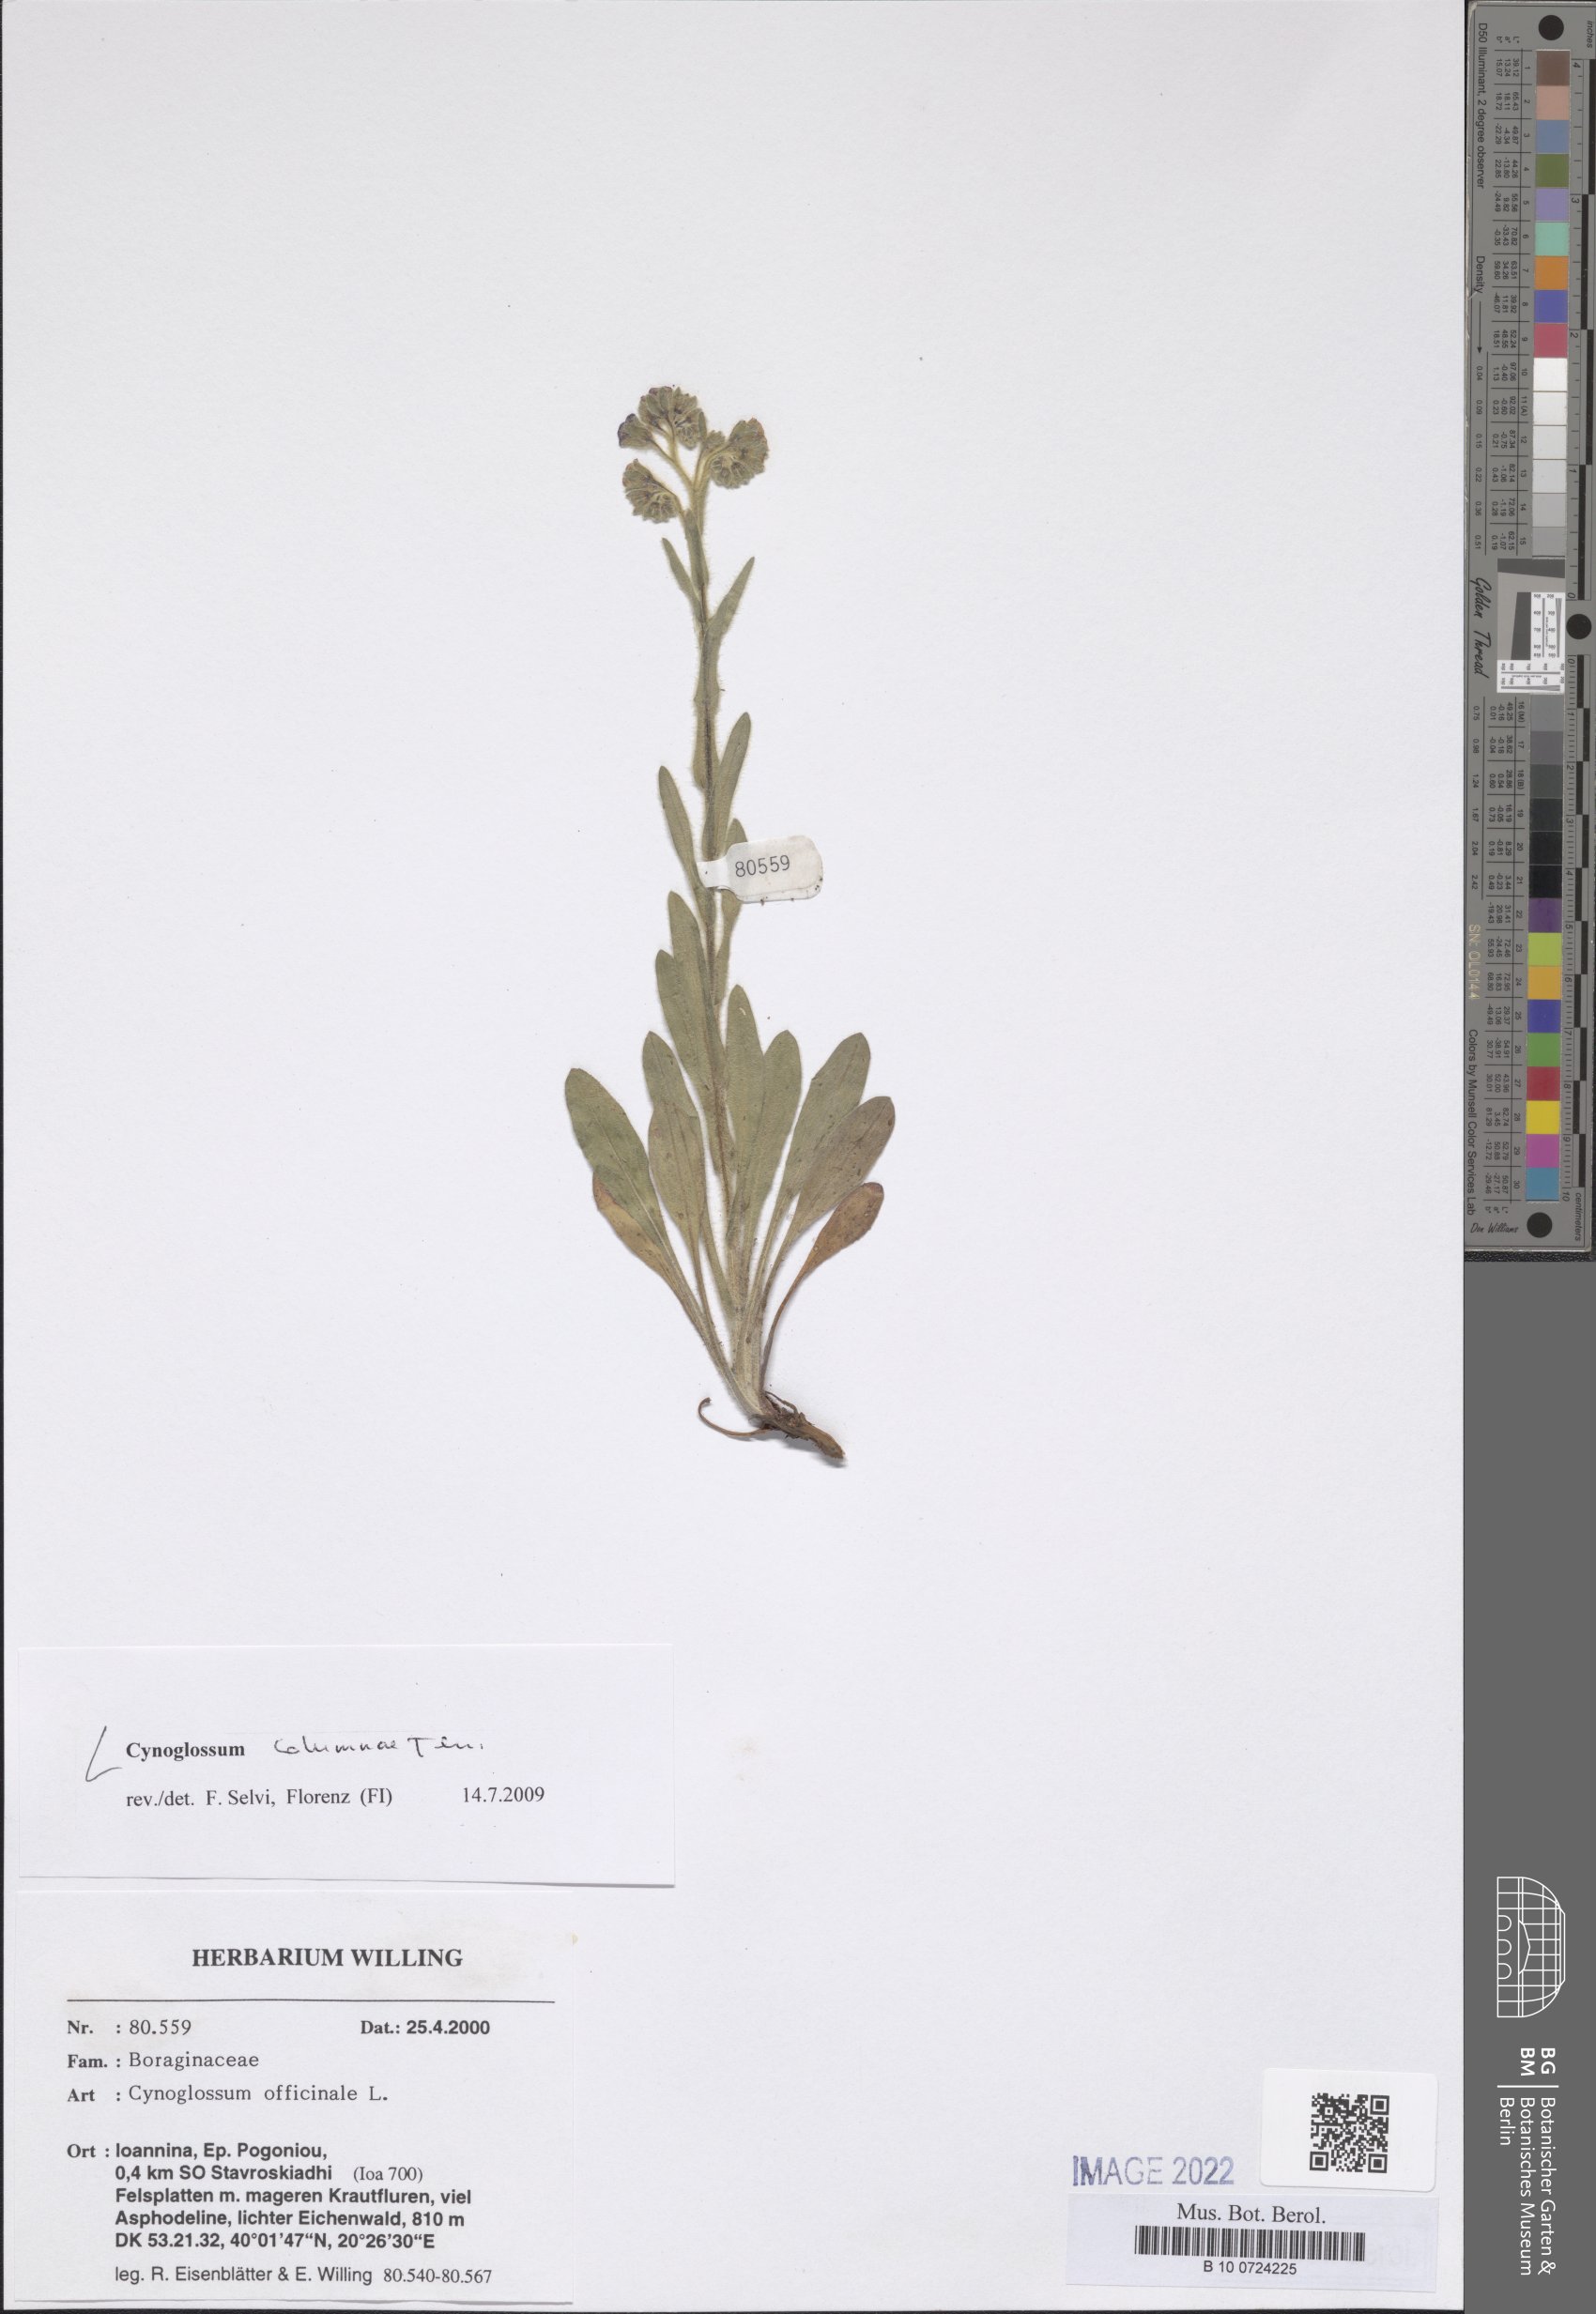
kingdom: Plantae
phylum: Tracheophyta
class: Magnoliopsida
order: Boraginales
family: Boraginaceae
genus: Rindera
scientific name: Rindera columnae
